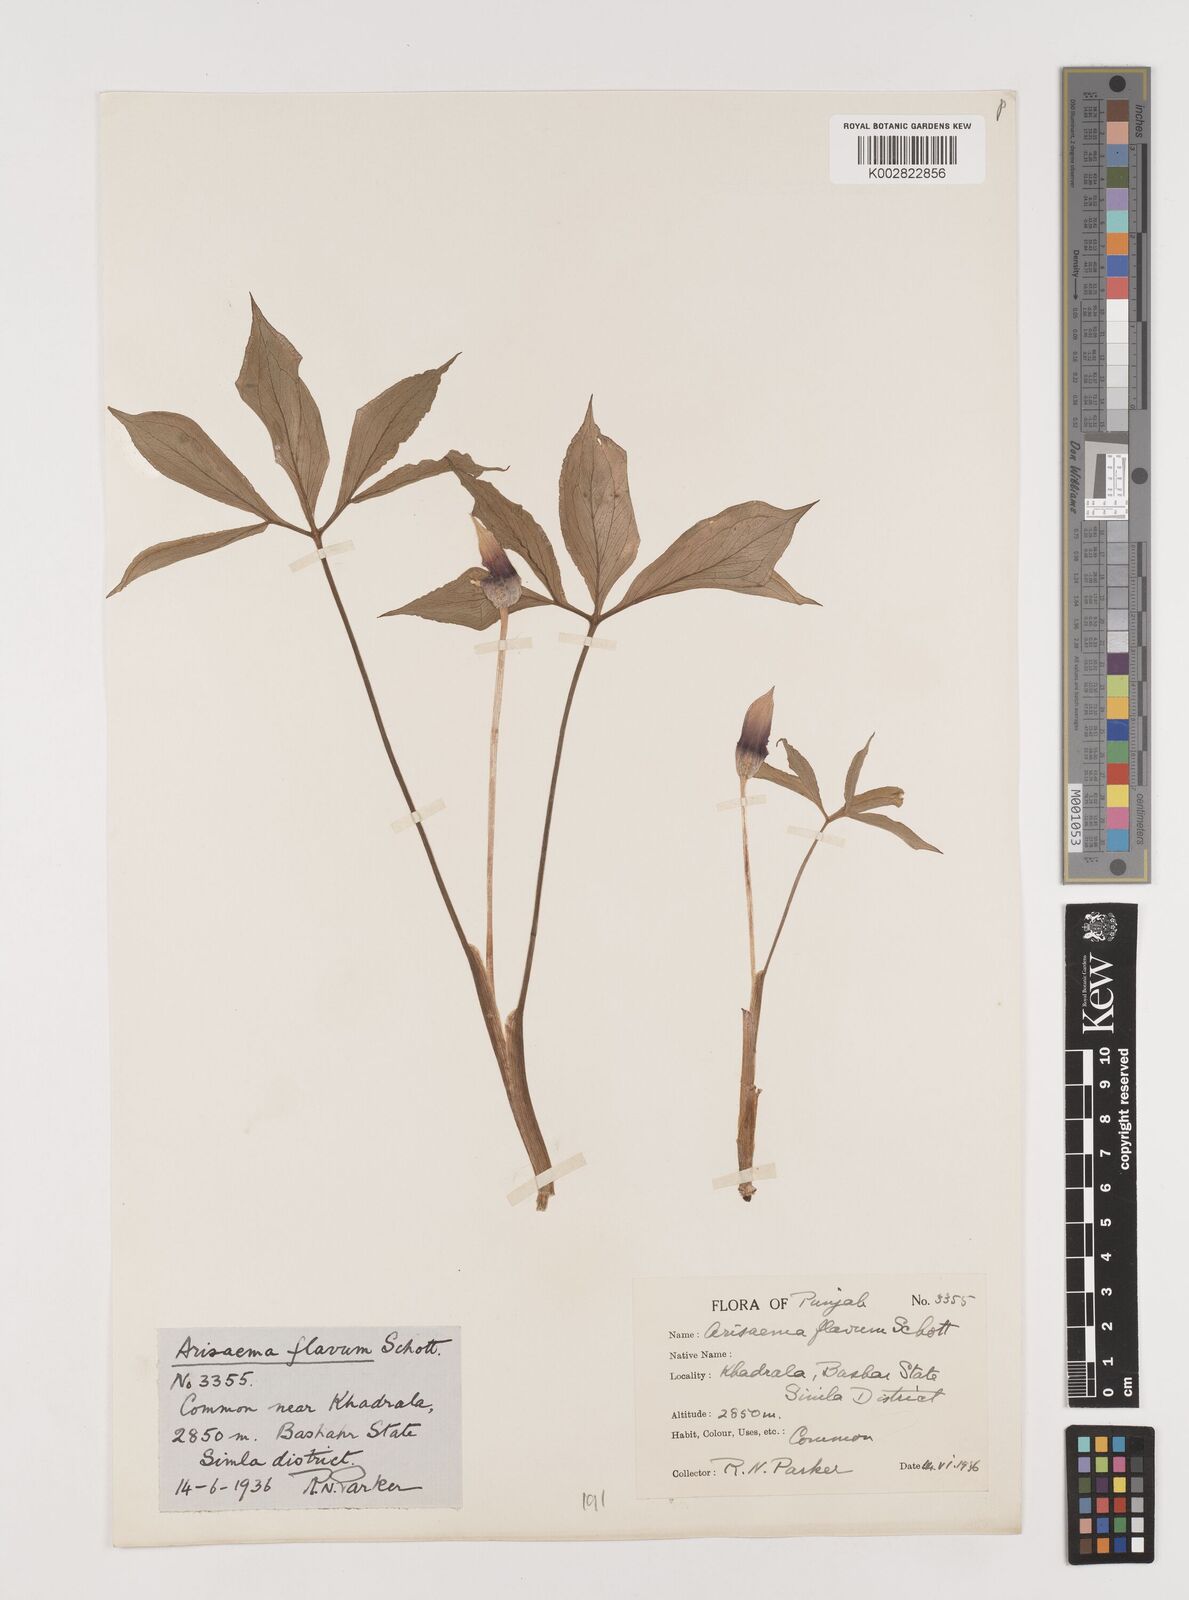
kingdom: Plantae
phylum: Tracheophyta
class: Liliopsida
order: Alismatales
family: Araceae
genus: Arisaema
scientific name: Arisaema flavum
